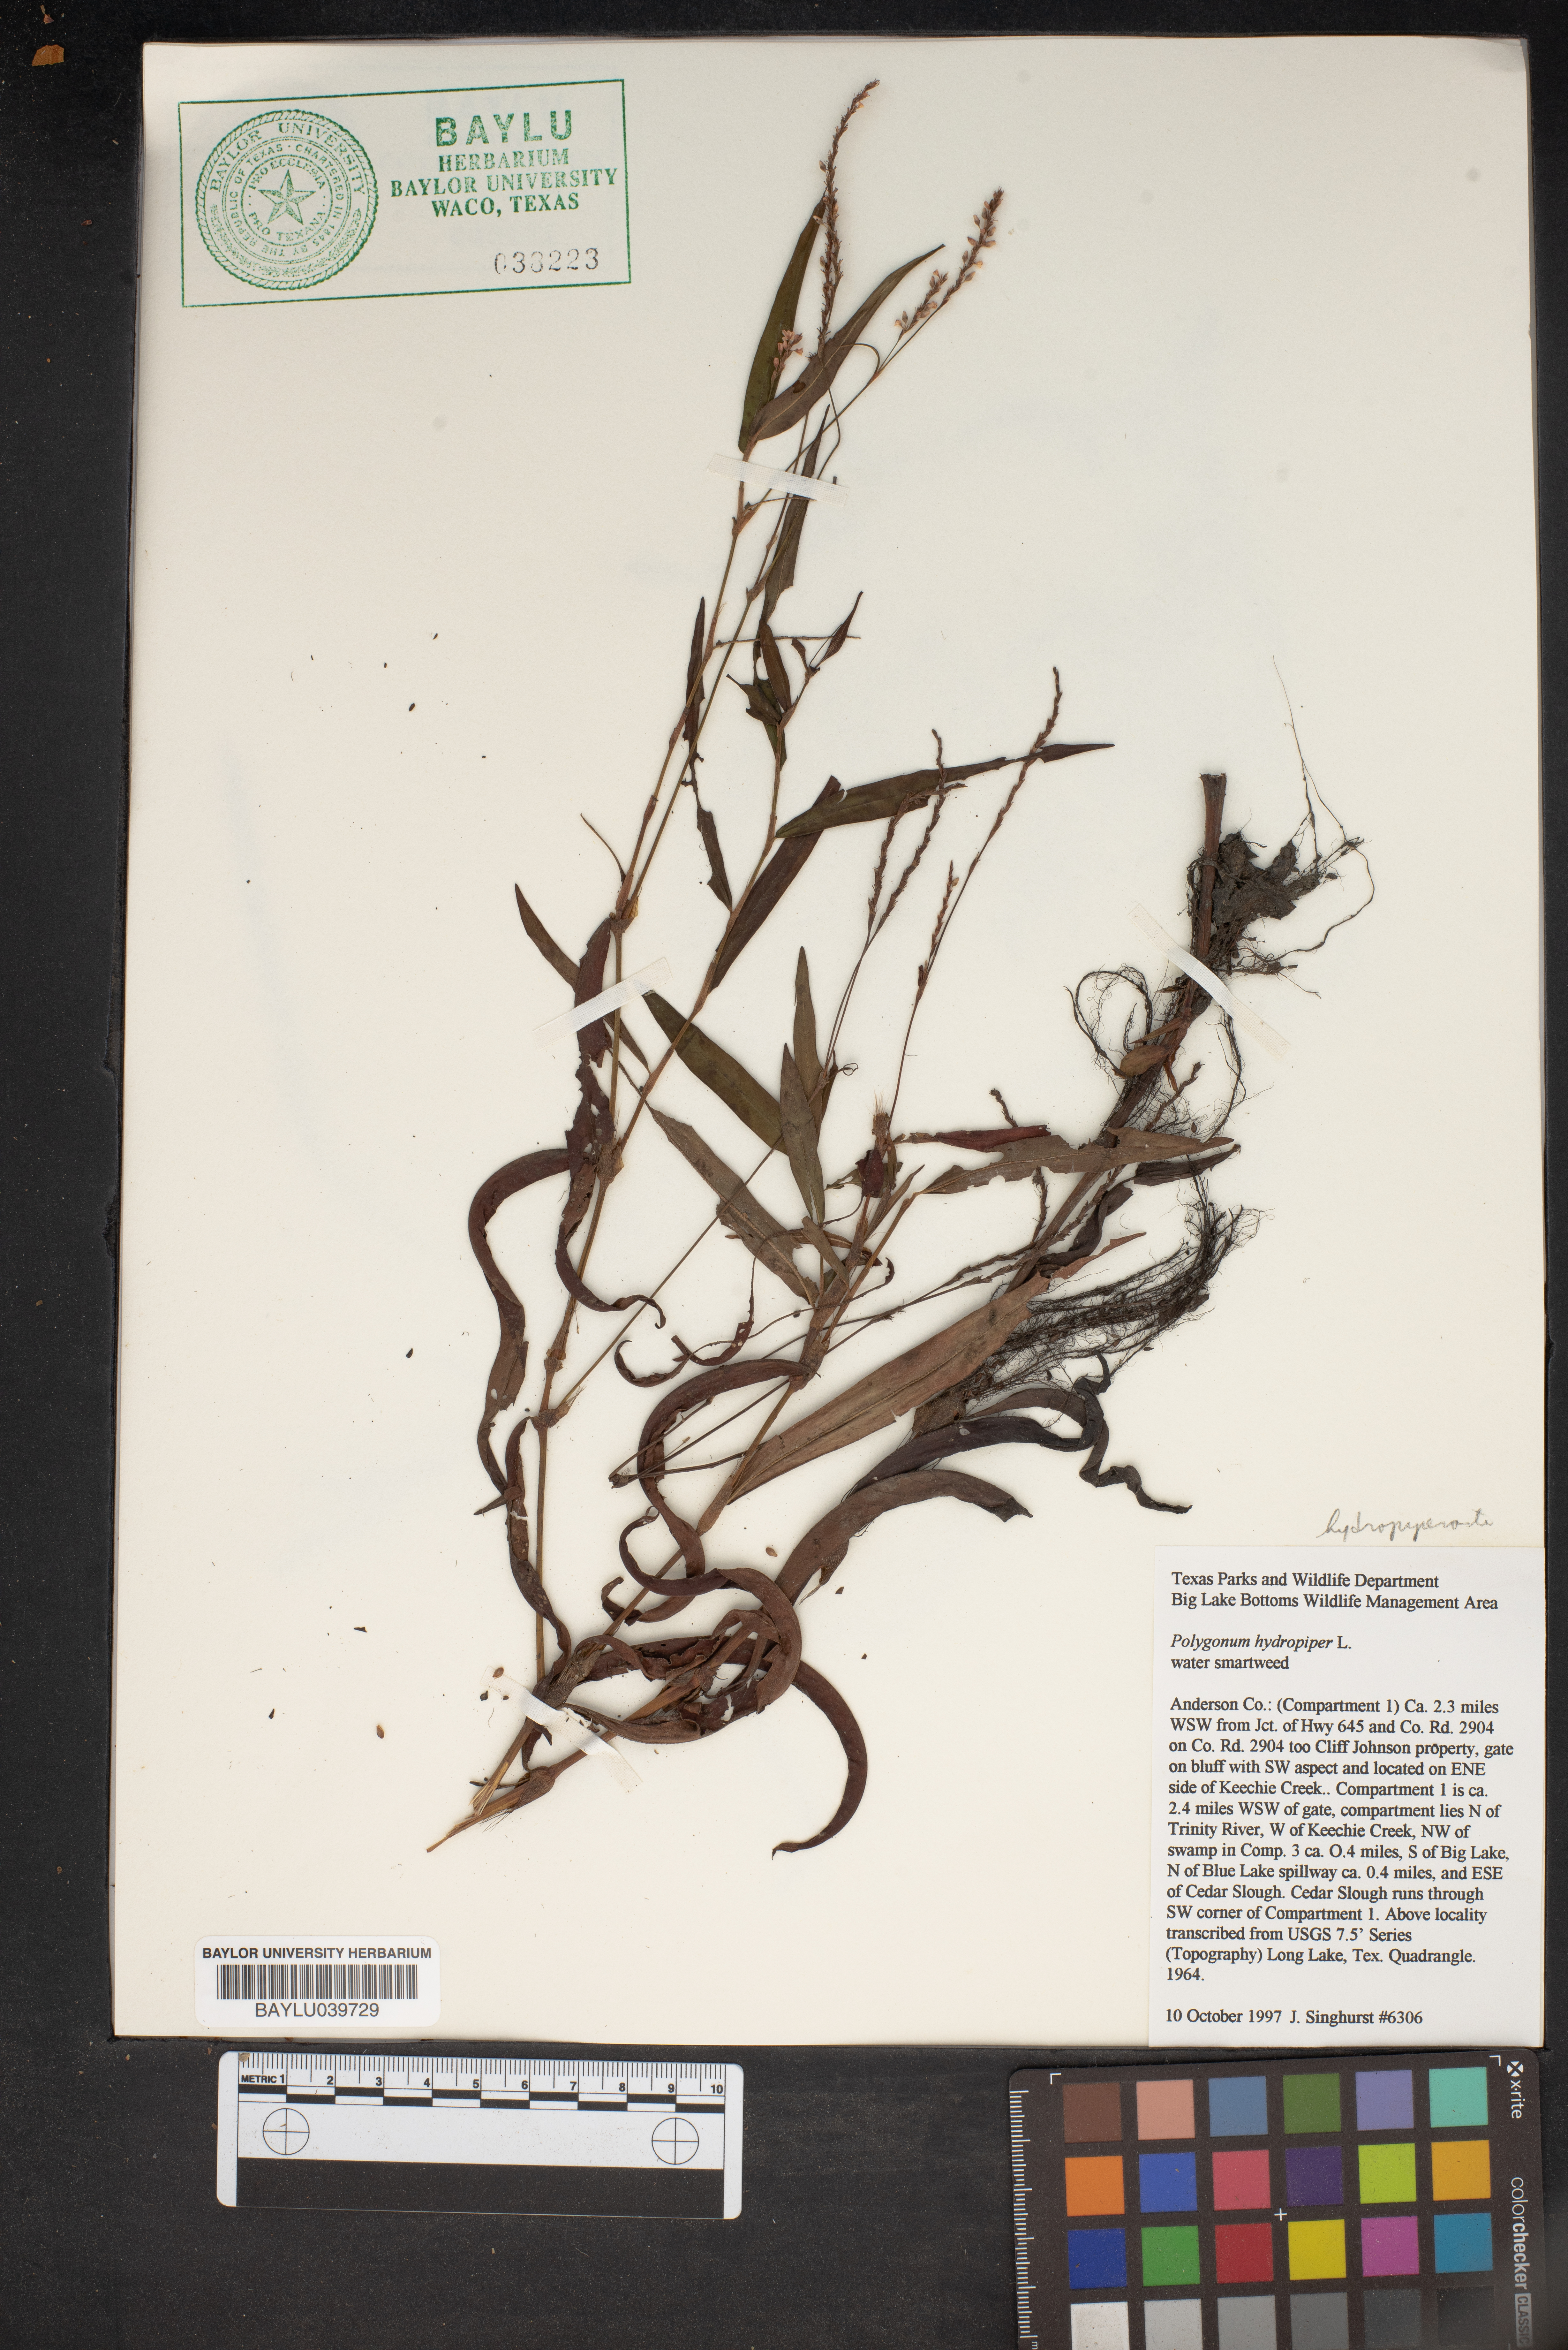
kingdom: Plantae
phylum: Tracheophyta
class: Magnoliopsida
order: Caryophyllales
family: Polygonaceae
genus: Persicaria
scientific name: Persicaria hydropiper
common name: Water-pepper
